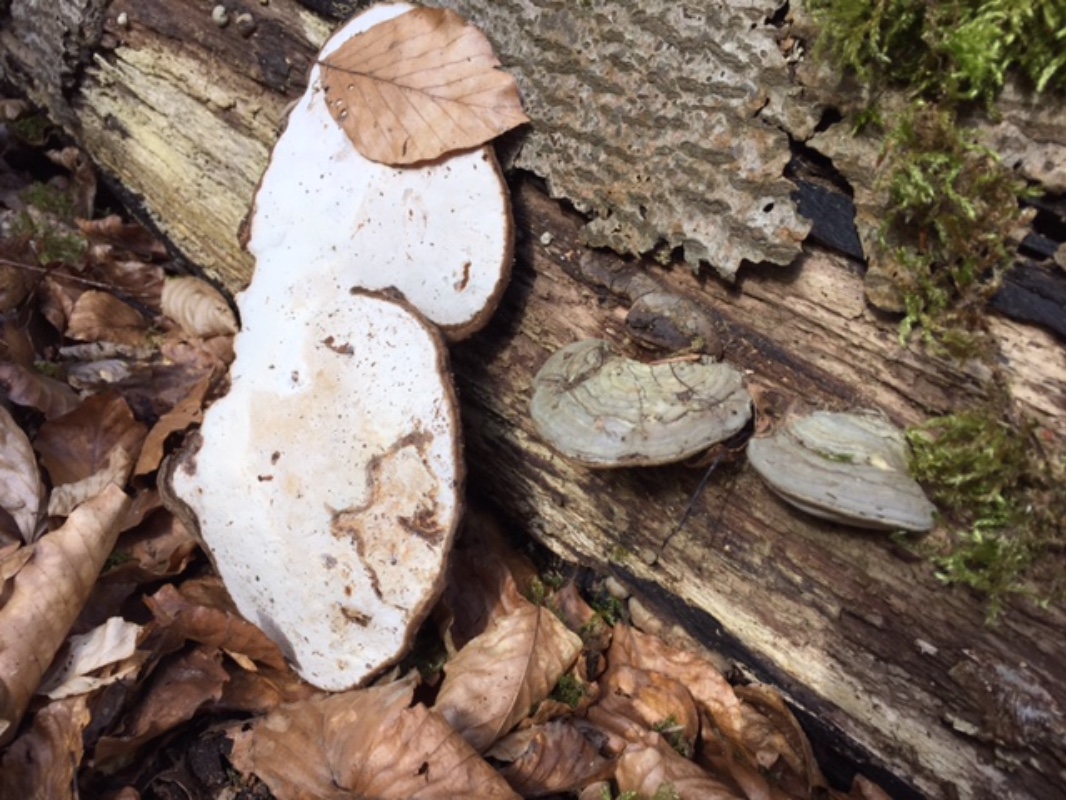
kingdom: Fungi
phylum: Basidiomycota
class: Agaricomycetes
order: Polyporales
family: Polyporaceae
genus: Ganoderma
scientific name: Ganoderma applanatum
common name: flad lakporesvamp
